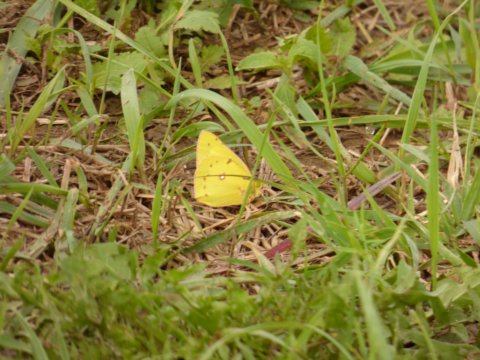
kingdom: Animalia
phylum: Arthropoda
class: Insecta
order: Lepidoptera
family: Pieridae
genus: Colias
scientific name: Colias philodice
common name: Clouded Sulphur
